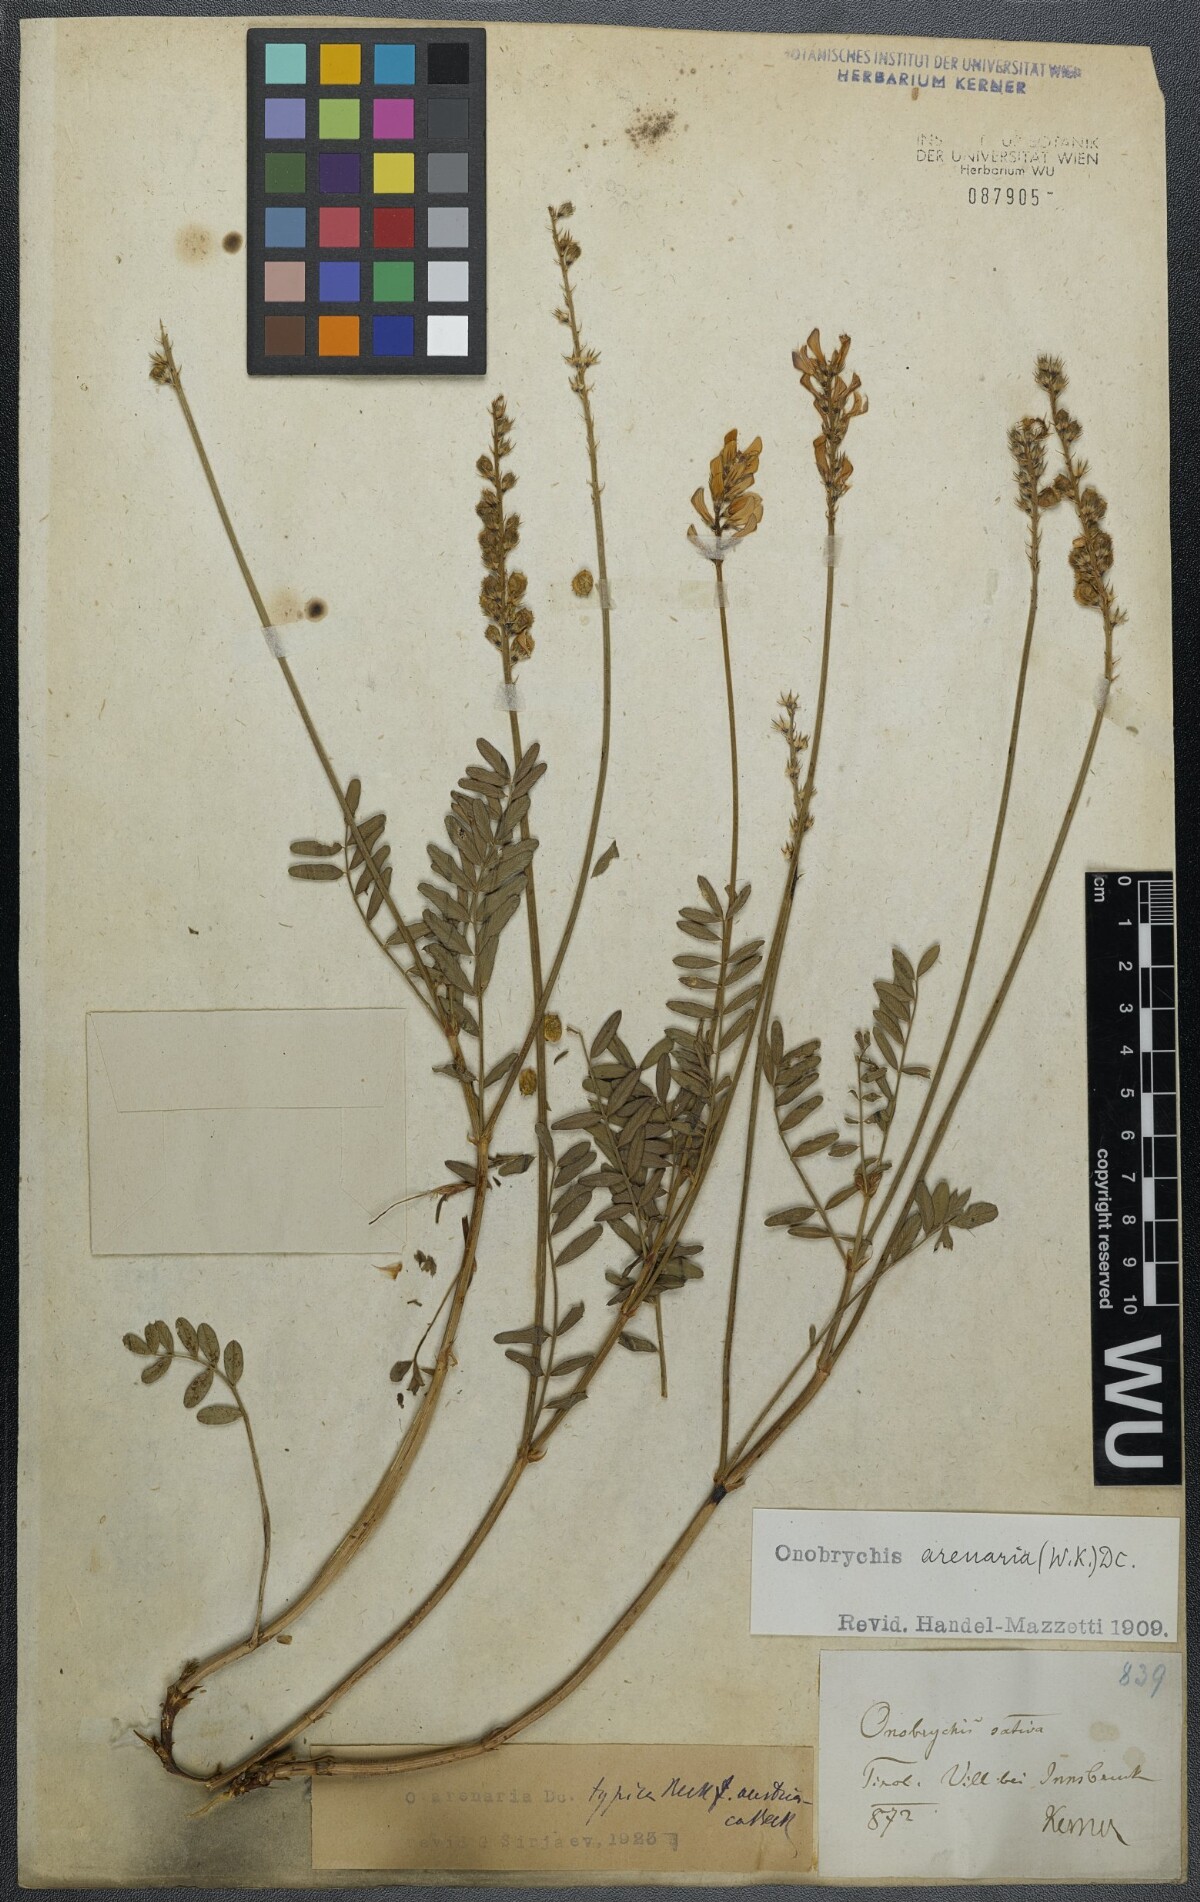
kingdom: Plantae
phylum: Tracheophyta
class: Magnoliopsida
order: Fabales
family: Fabaceae
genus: Onobrychis
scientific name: Onobrychis arenaria
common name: Sand esparcet
